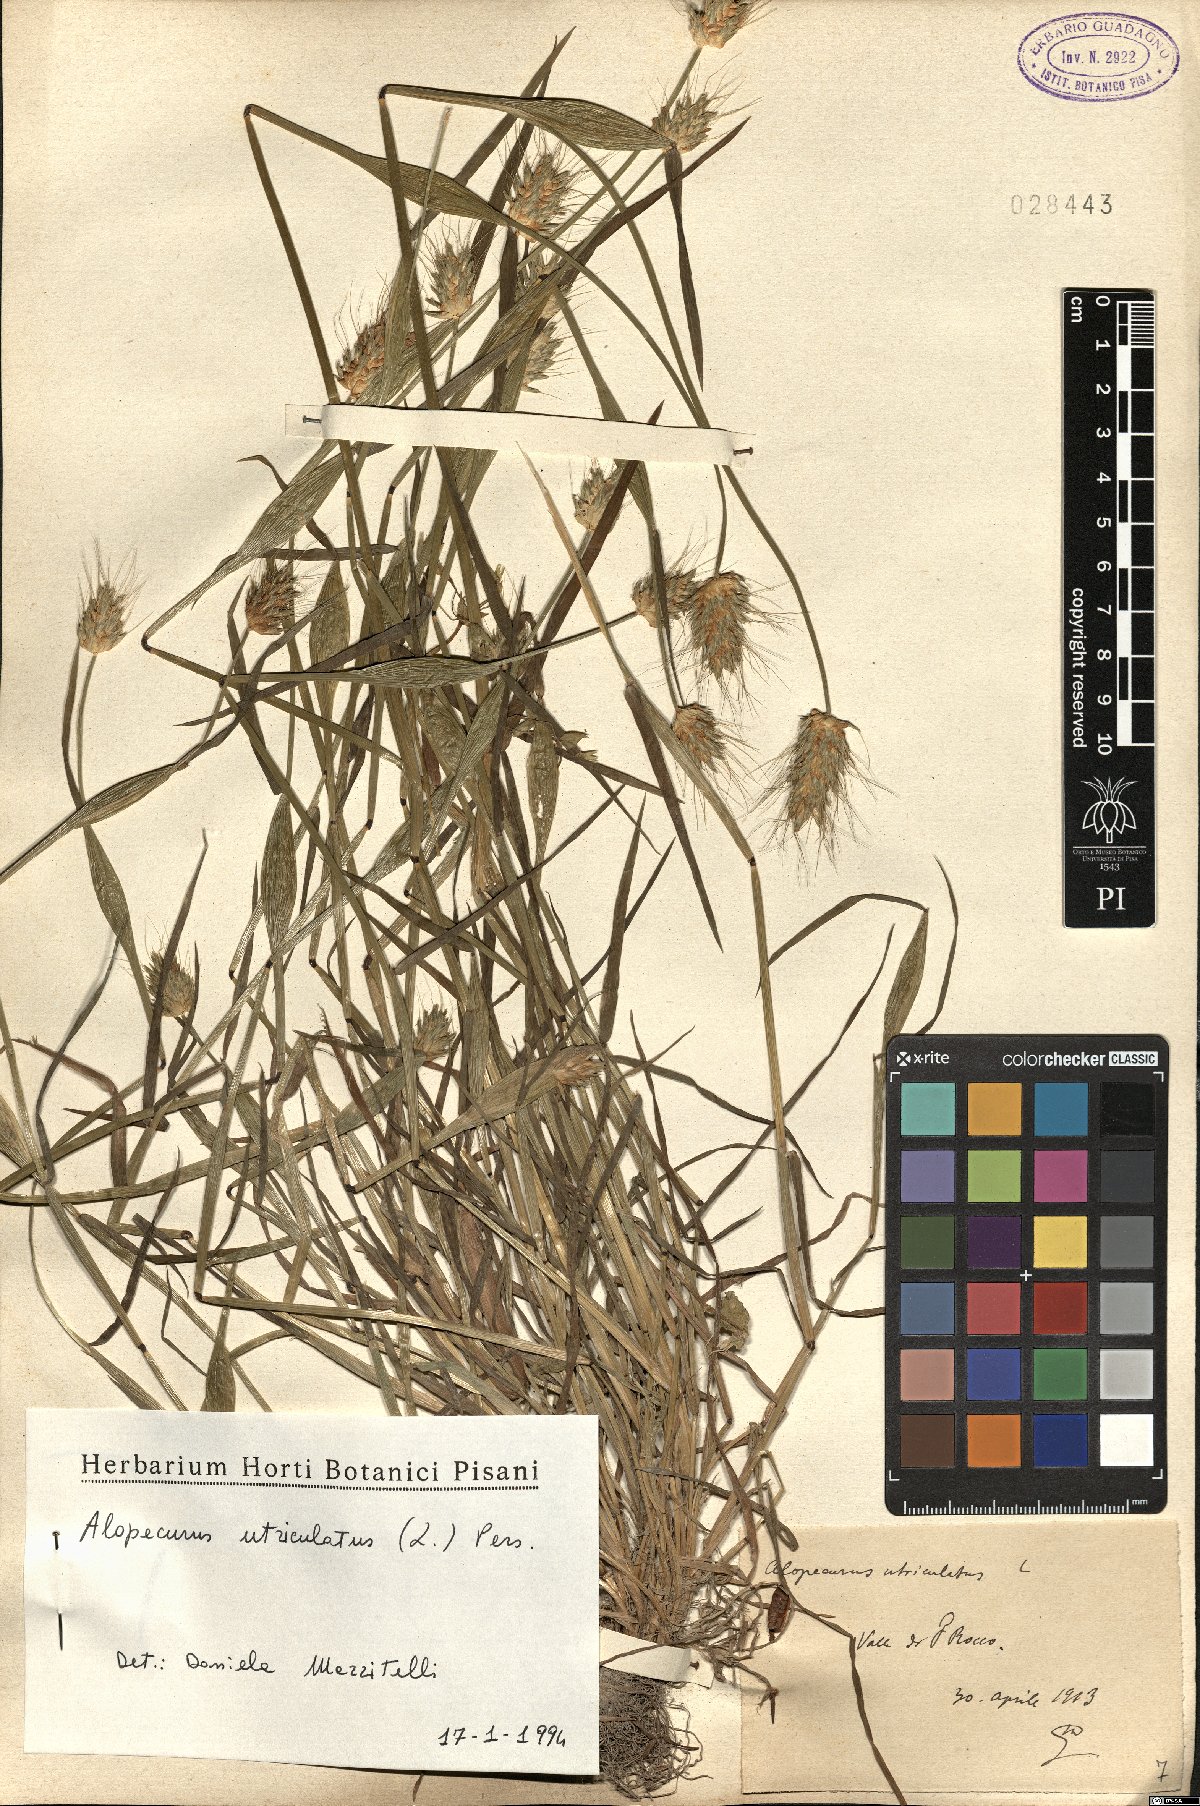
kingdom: Plantae
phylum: Tracheophyta
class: Liliopsida
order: Poales
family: Poaceae
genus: Alopecurus
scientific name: Alopecurus rendlei
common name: Rendle's meadow foxtail
